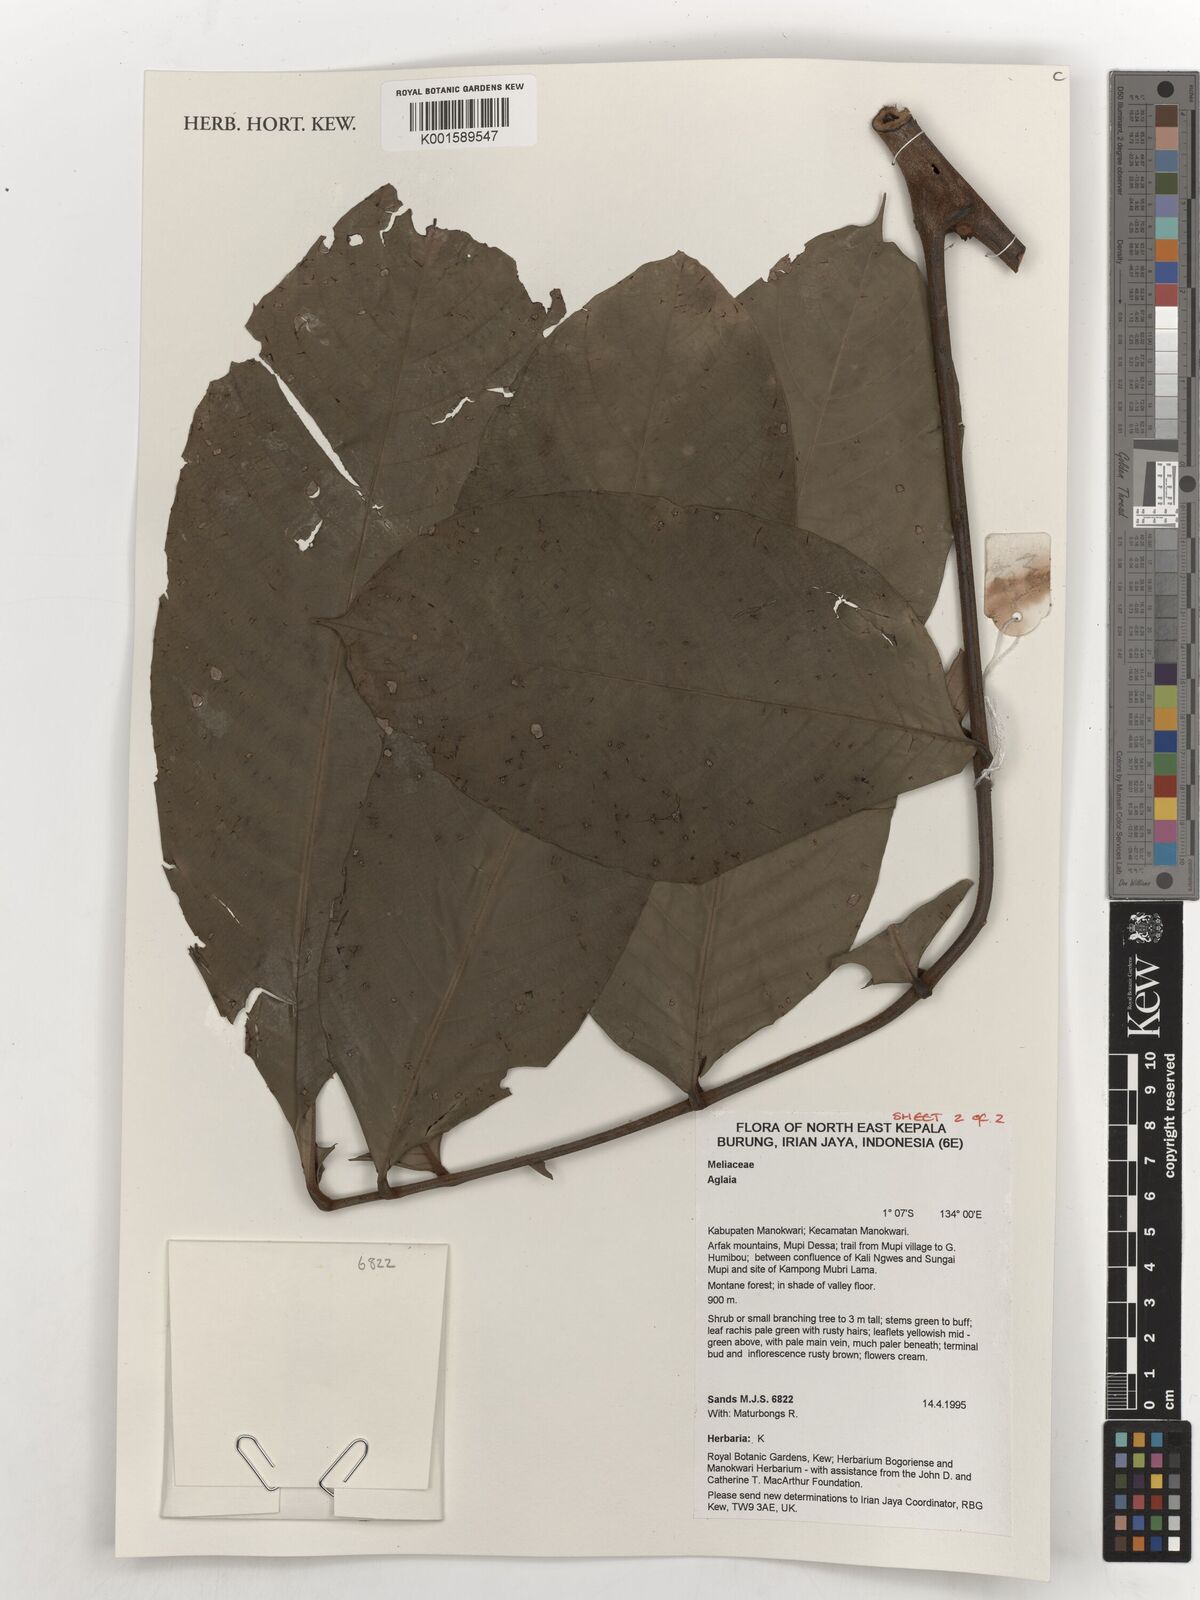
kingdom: Plantae
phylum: Tracheophyta
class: Magnoliopsida
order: Sapindales
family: Meliaceae
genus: Aglaia
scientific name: Aglaia
